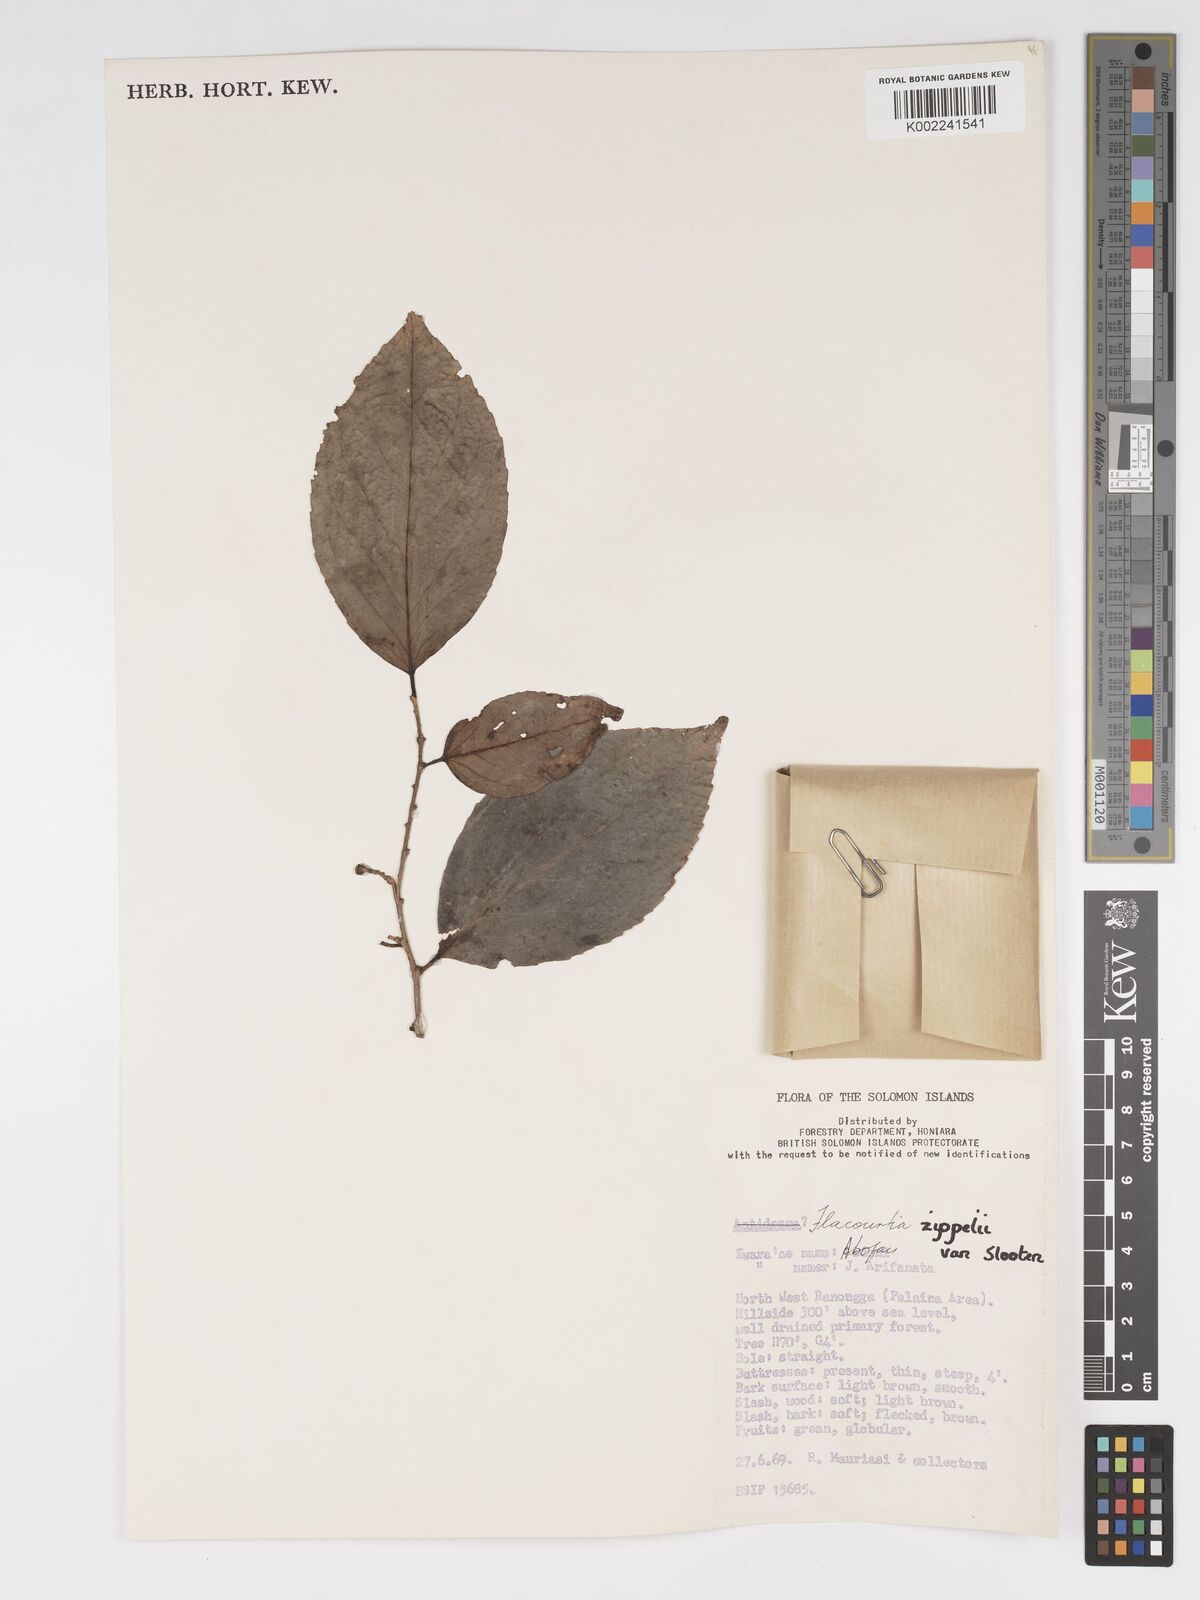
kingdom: Plantae
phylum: Tracheophyta
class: Magnoliopsida
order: Malpighiales
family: Salicaceae
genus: Flacourtia
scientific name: Flacourtia zippelii
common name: Zippeli plum
